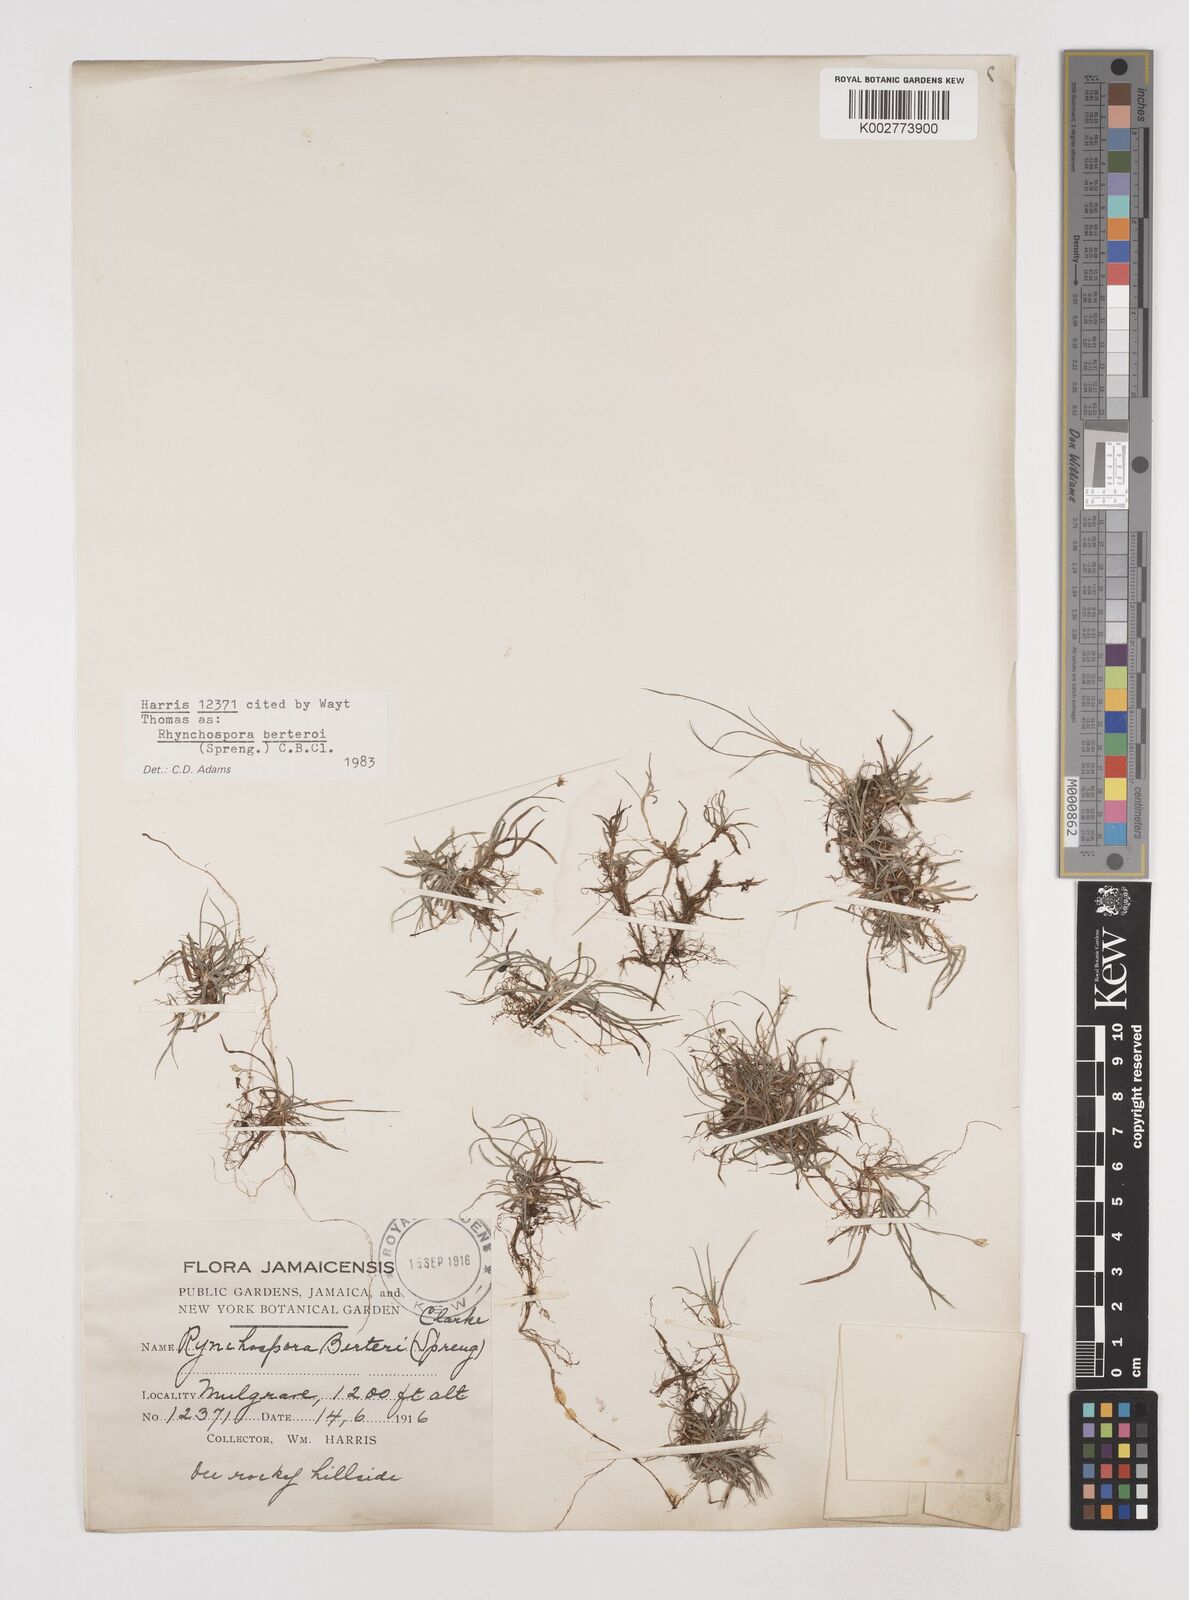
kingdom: Plantae
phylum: Tracheophyta
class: Liliopsida
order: Poales
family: Cyperaceae
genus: Rhynchospora
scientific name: Rhynchospora berteroi
